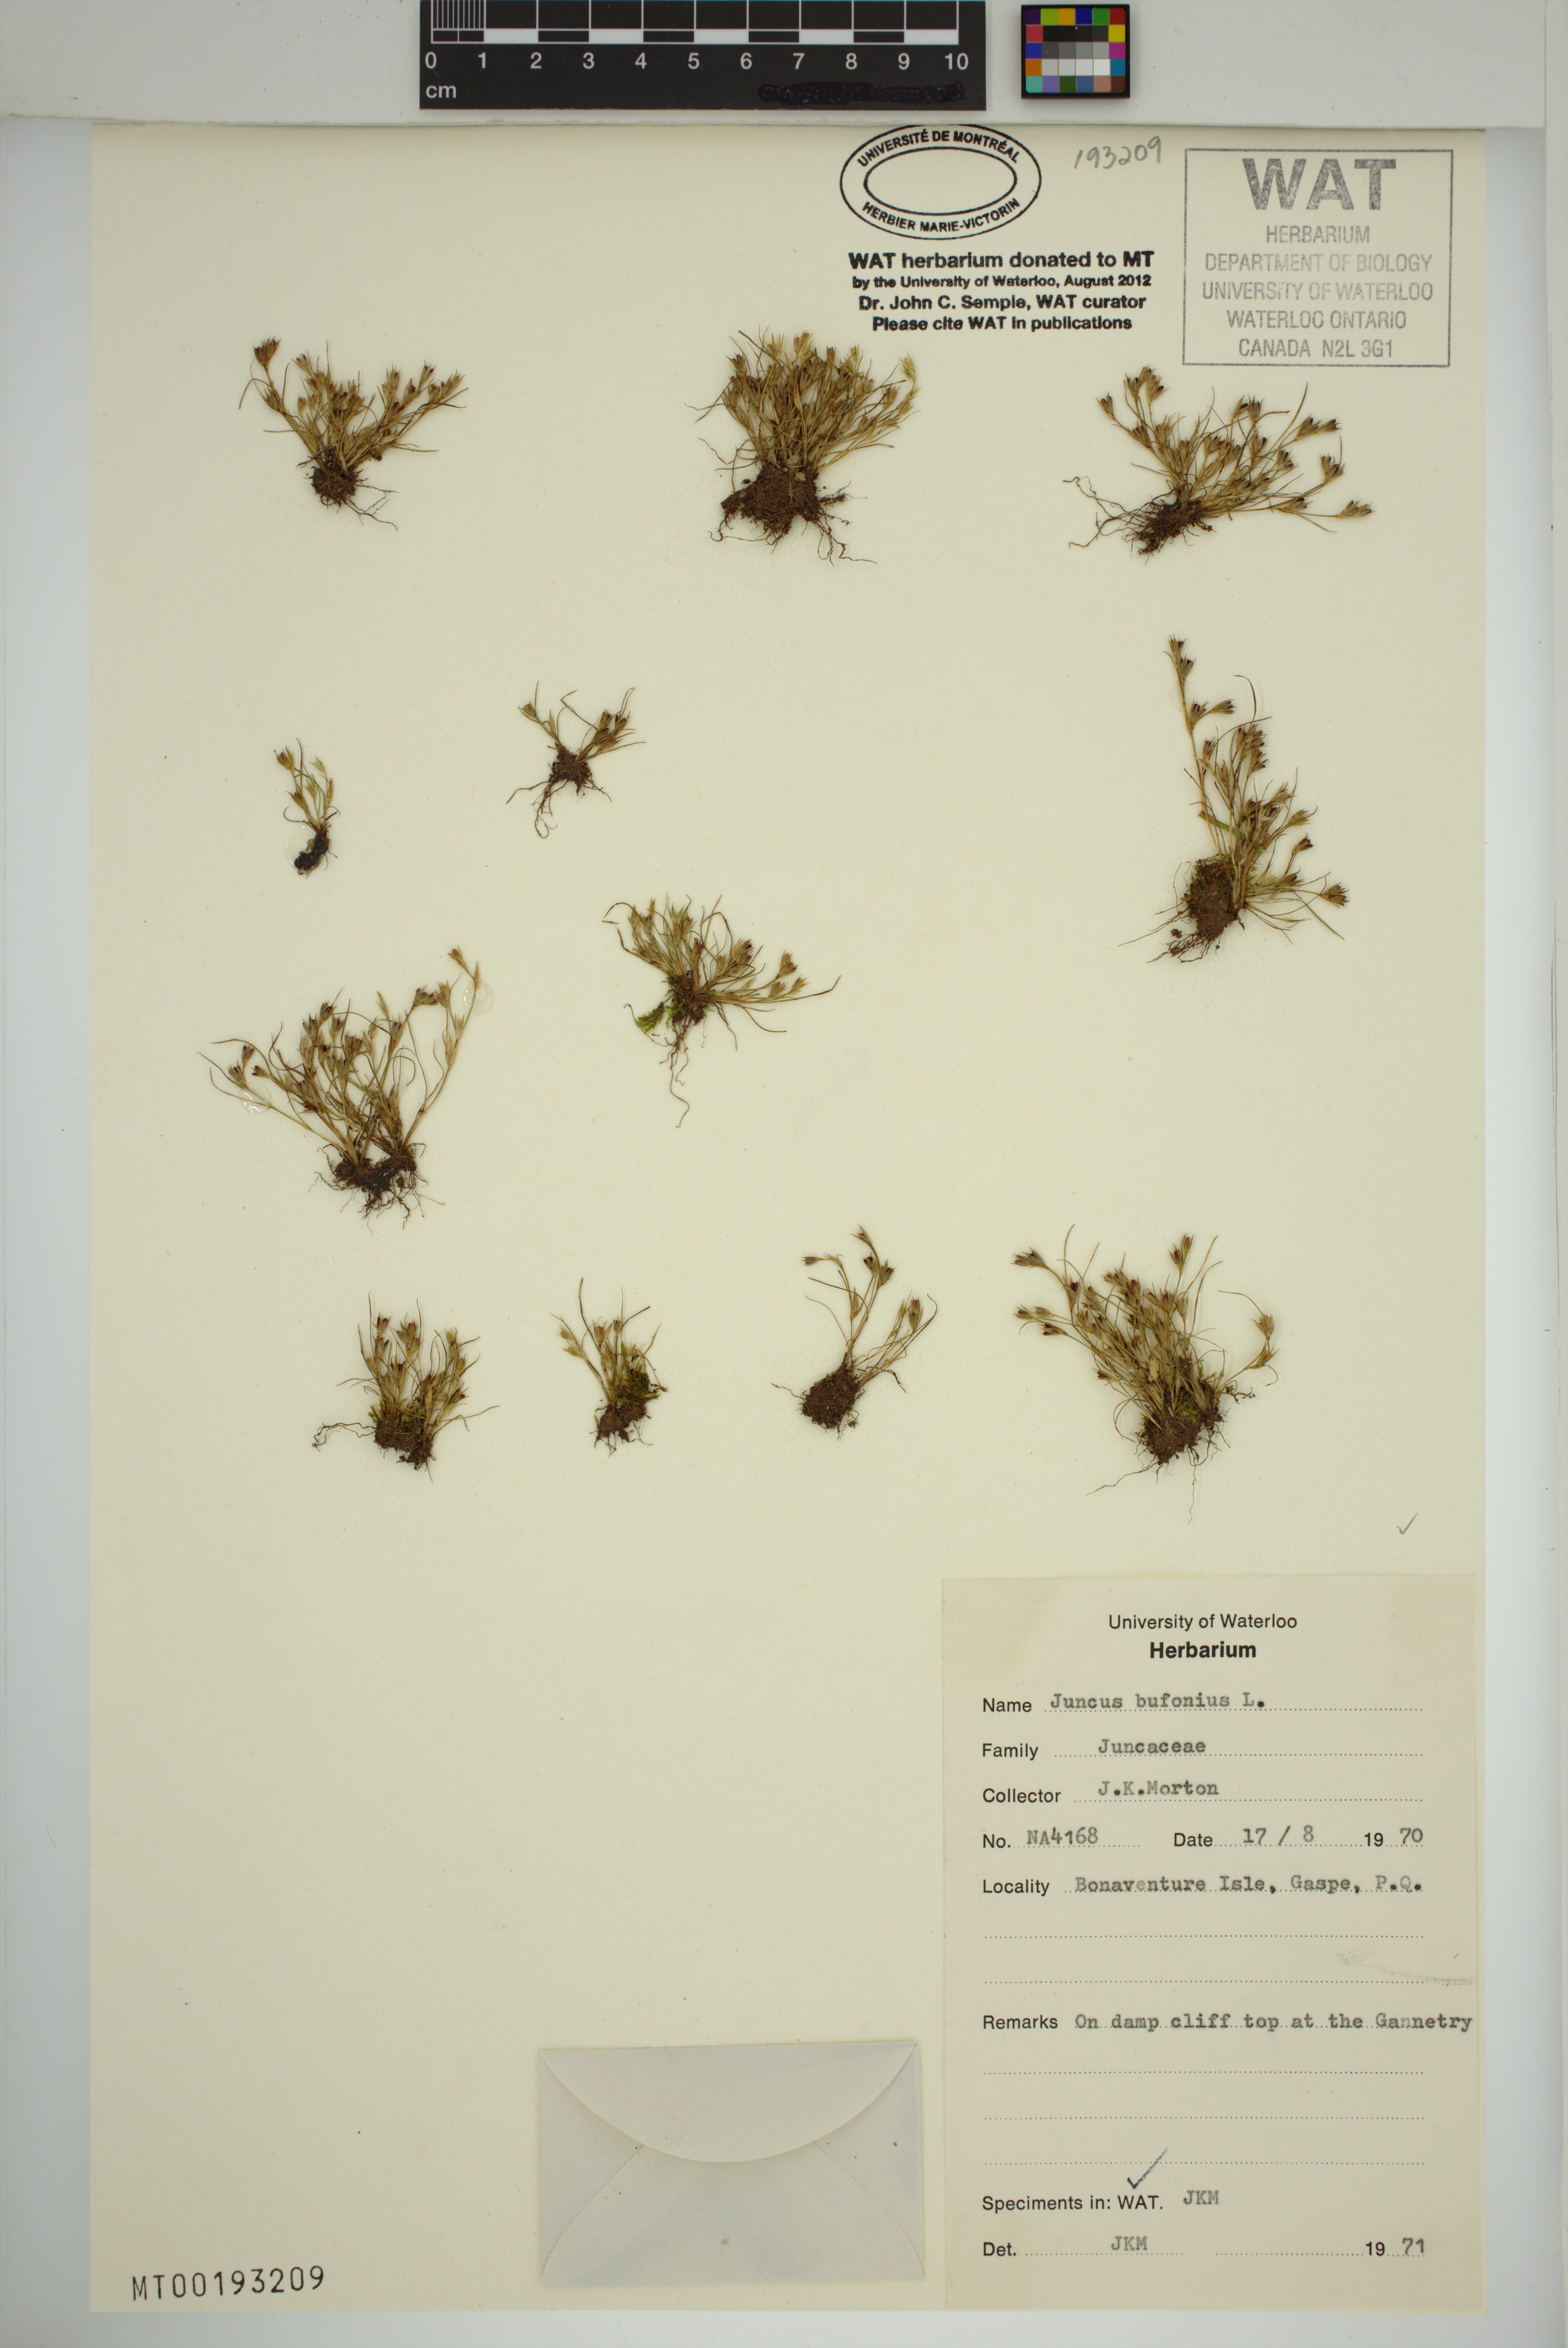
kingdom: Plantae
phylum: Tracheophyta
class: Liliopsida
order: Poales
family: Juncaceae
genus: Juncus
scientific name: Juncus bufonius
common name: Toad rush
